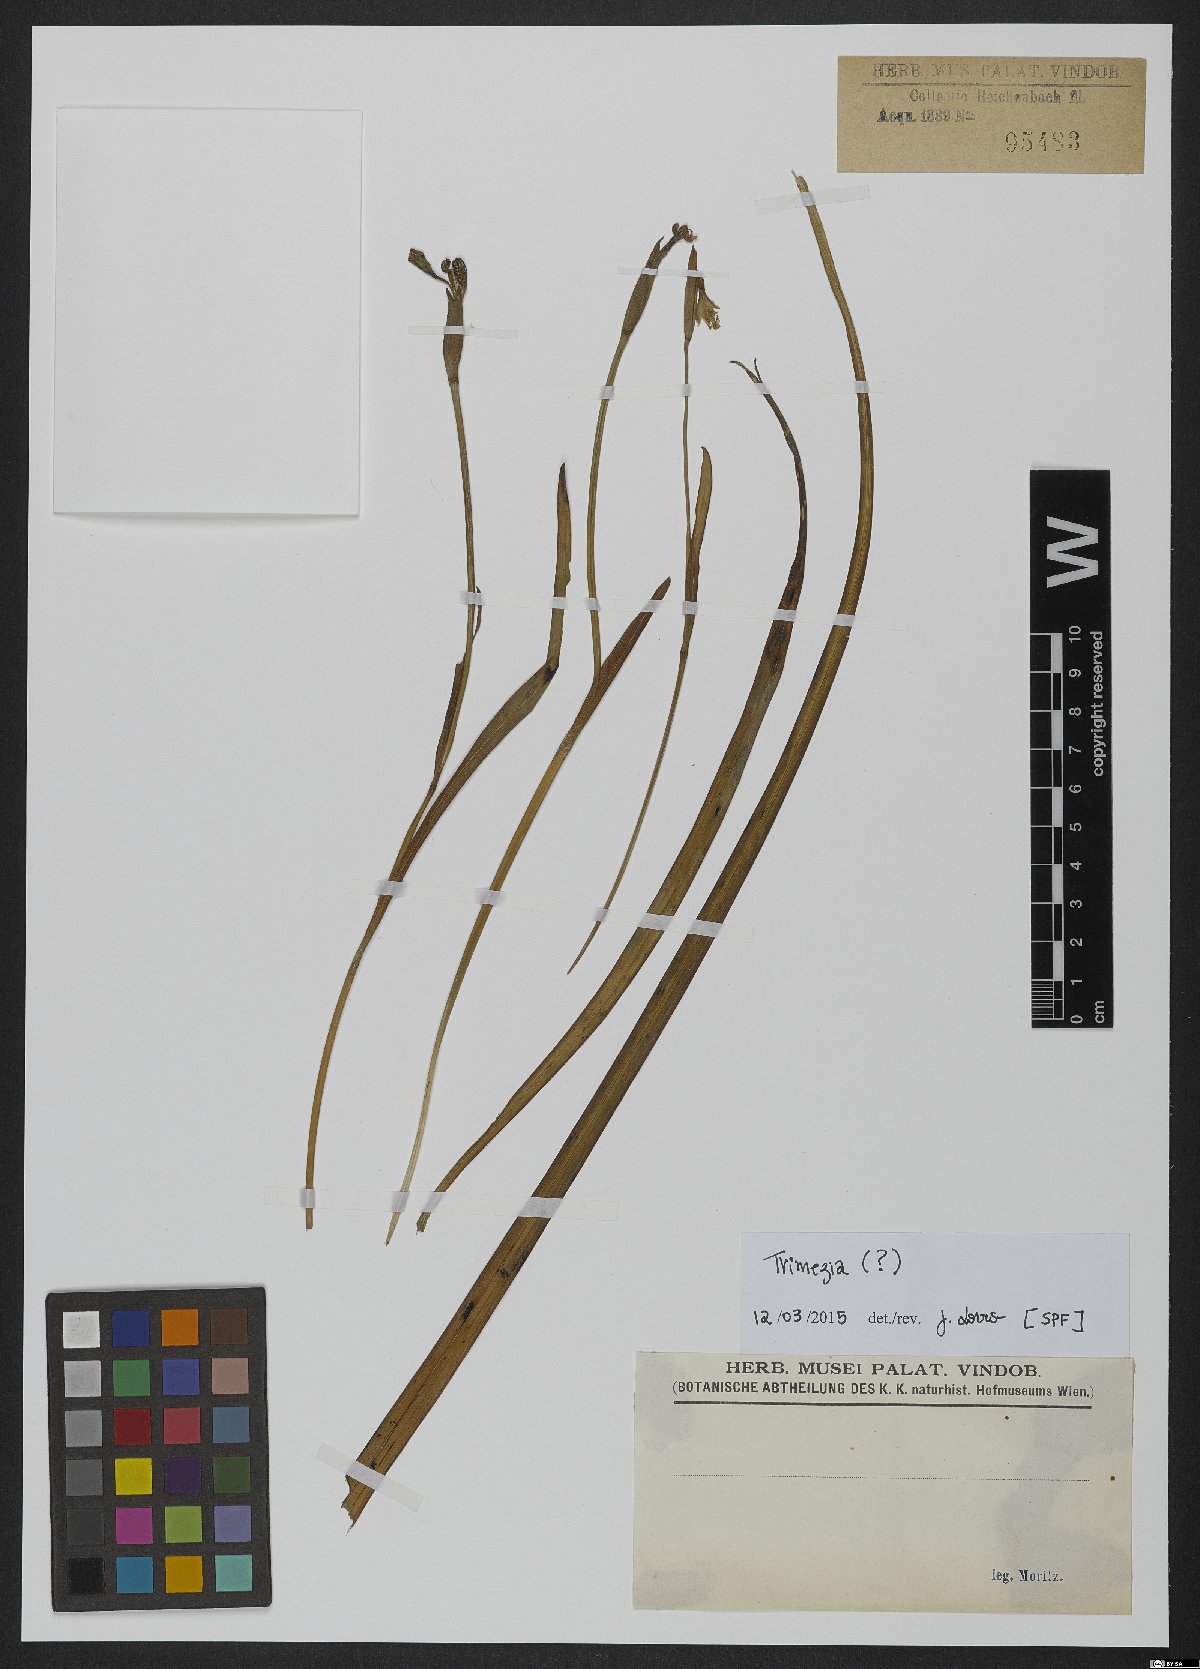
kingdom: Plantae
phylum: Tracheophyta
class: Liliopsida
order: Asparagales
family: Iridaceae
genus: Trimezia
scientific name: Trimezia
